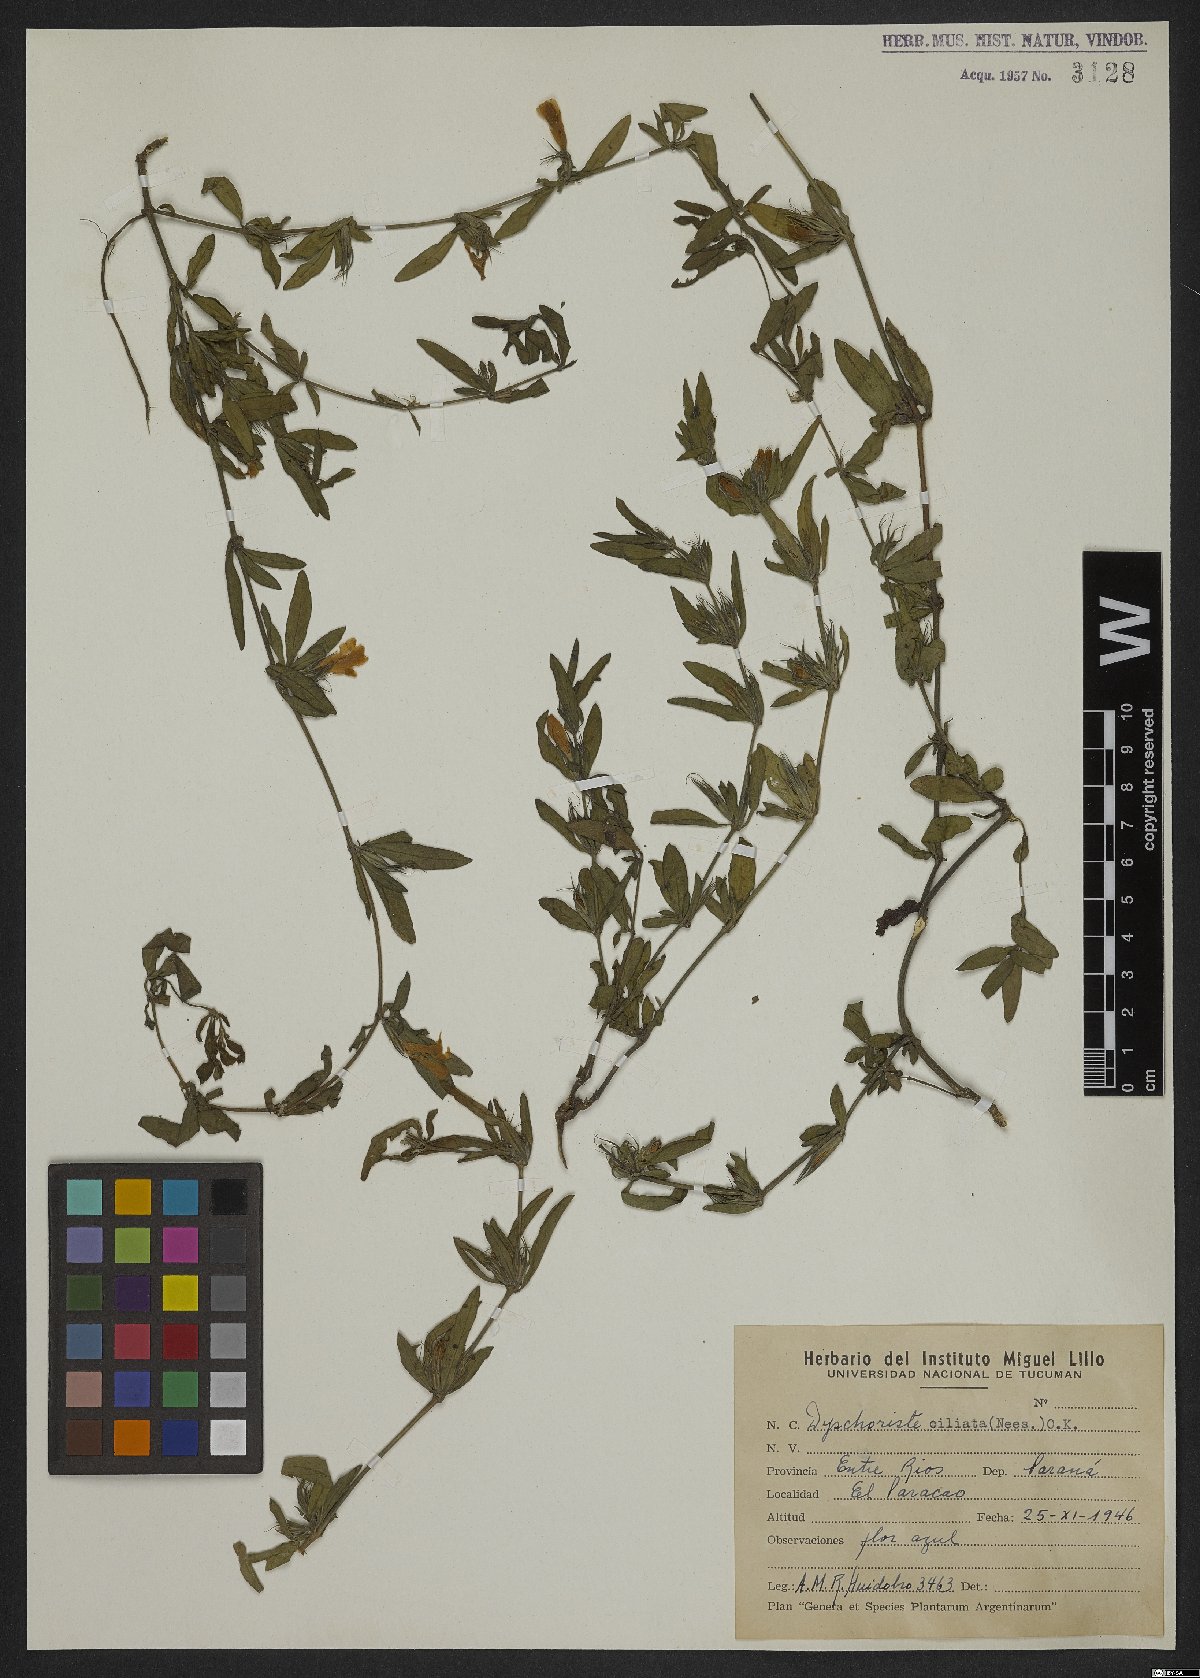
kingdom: Plantae
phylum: Tracheophyta
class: Magnoliopsida
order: Lamiales
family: Acanthaceae
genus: Dyschoriste
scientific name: Dyschoriste ciliata
